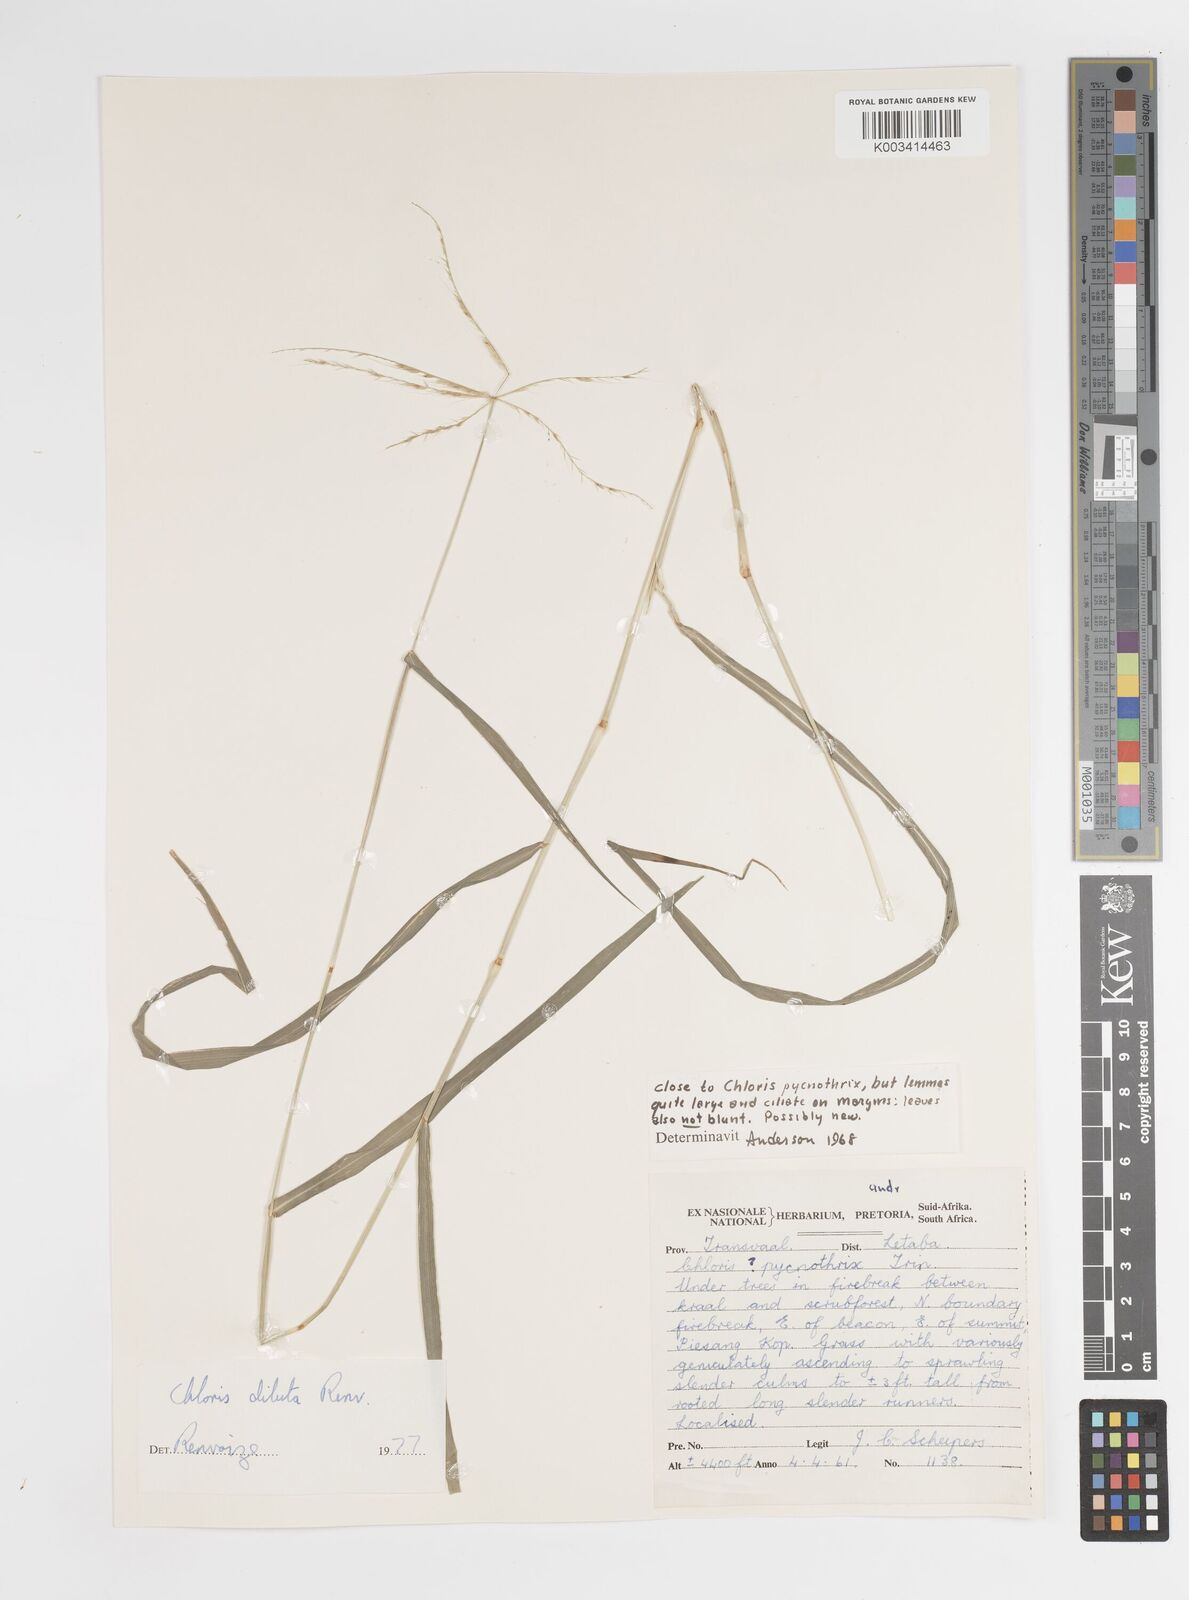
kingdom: Plantae
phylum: Tracheophyta
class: Liliopsida
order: Poales
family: Poaceae
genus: Chloris
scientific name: Chloris diluta
